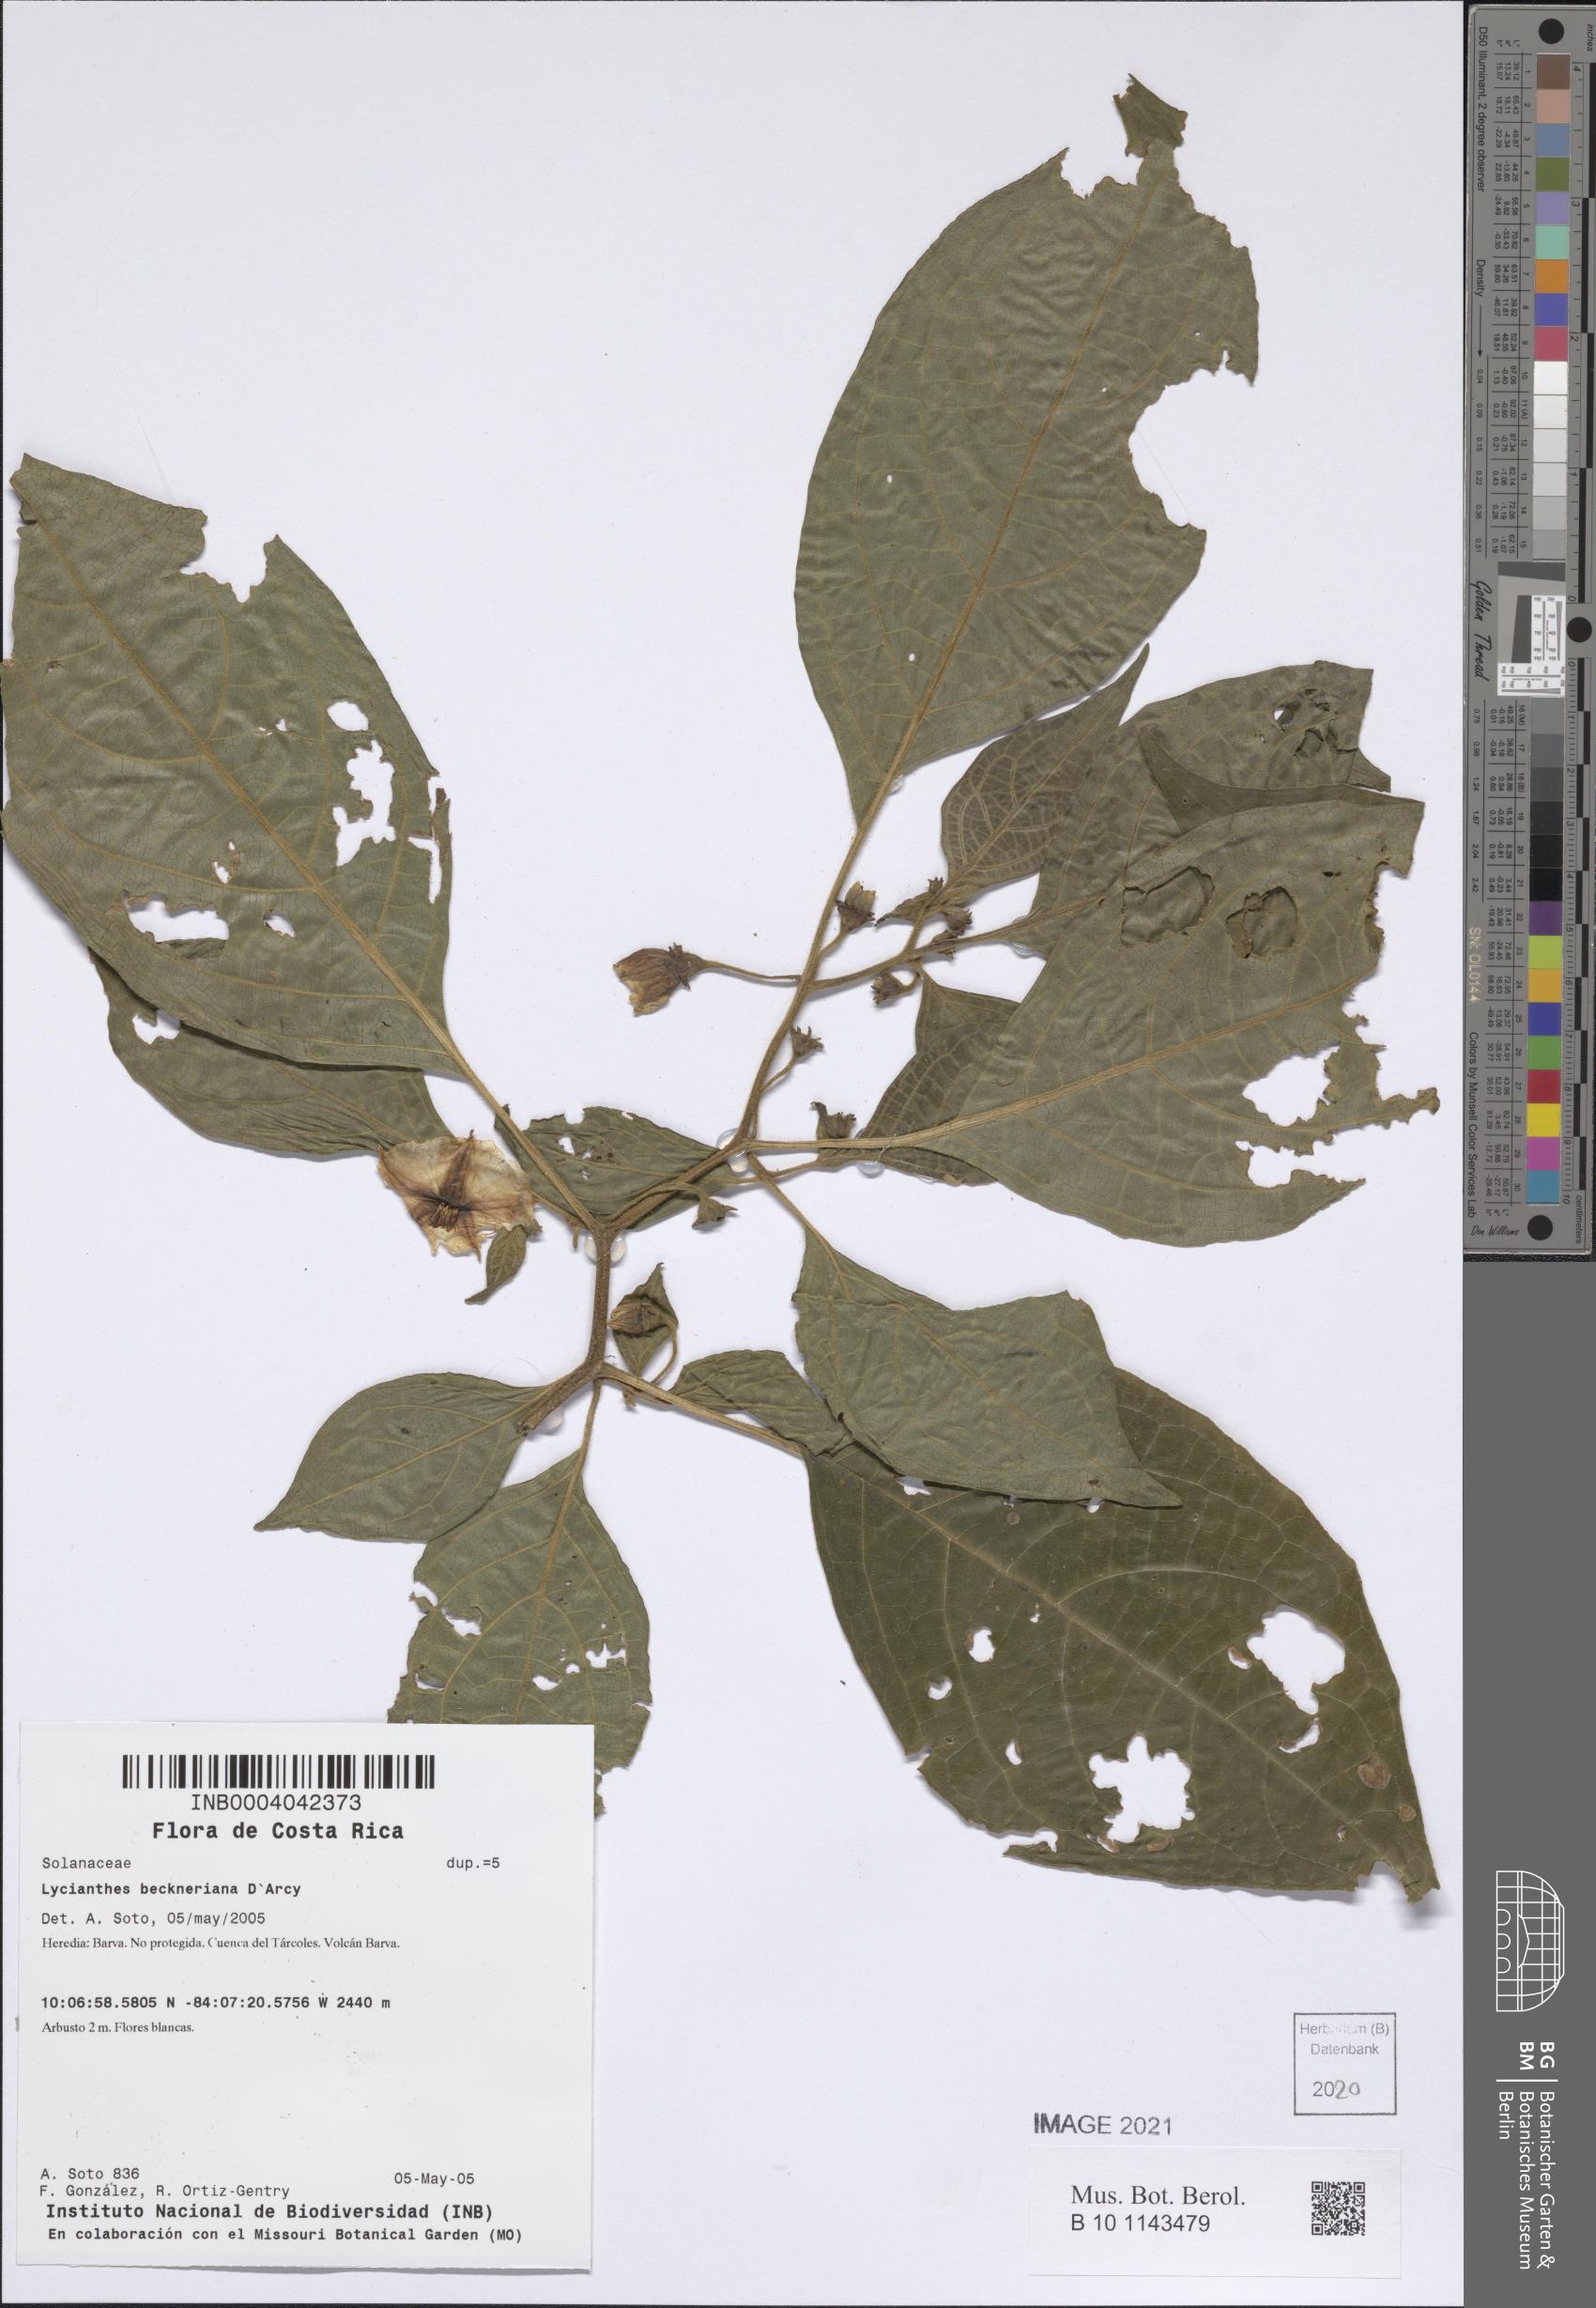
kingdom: Plantae
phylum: Tracheophyta
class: Magnoliopsida
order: Solanales
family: Solanaceae
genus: Lycianthes
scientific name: Lycianthes beckneriana
